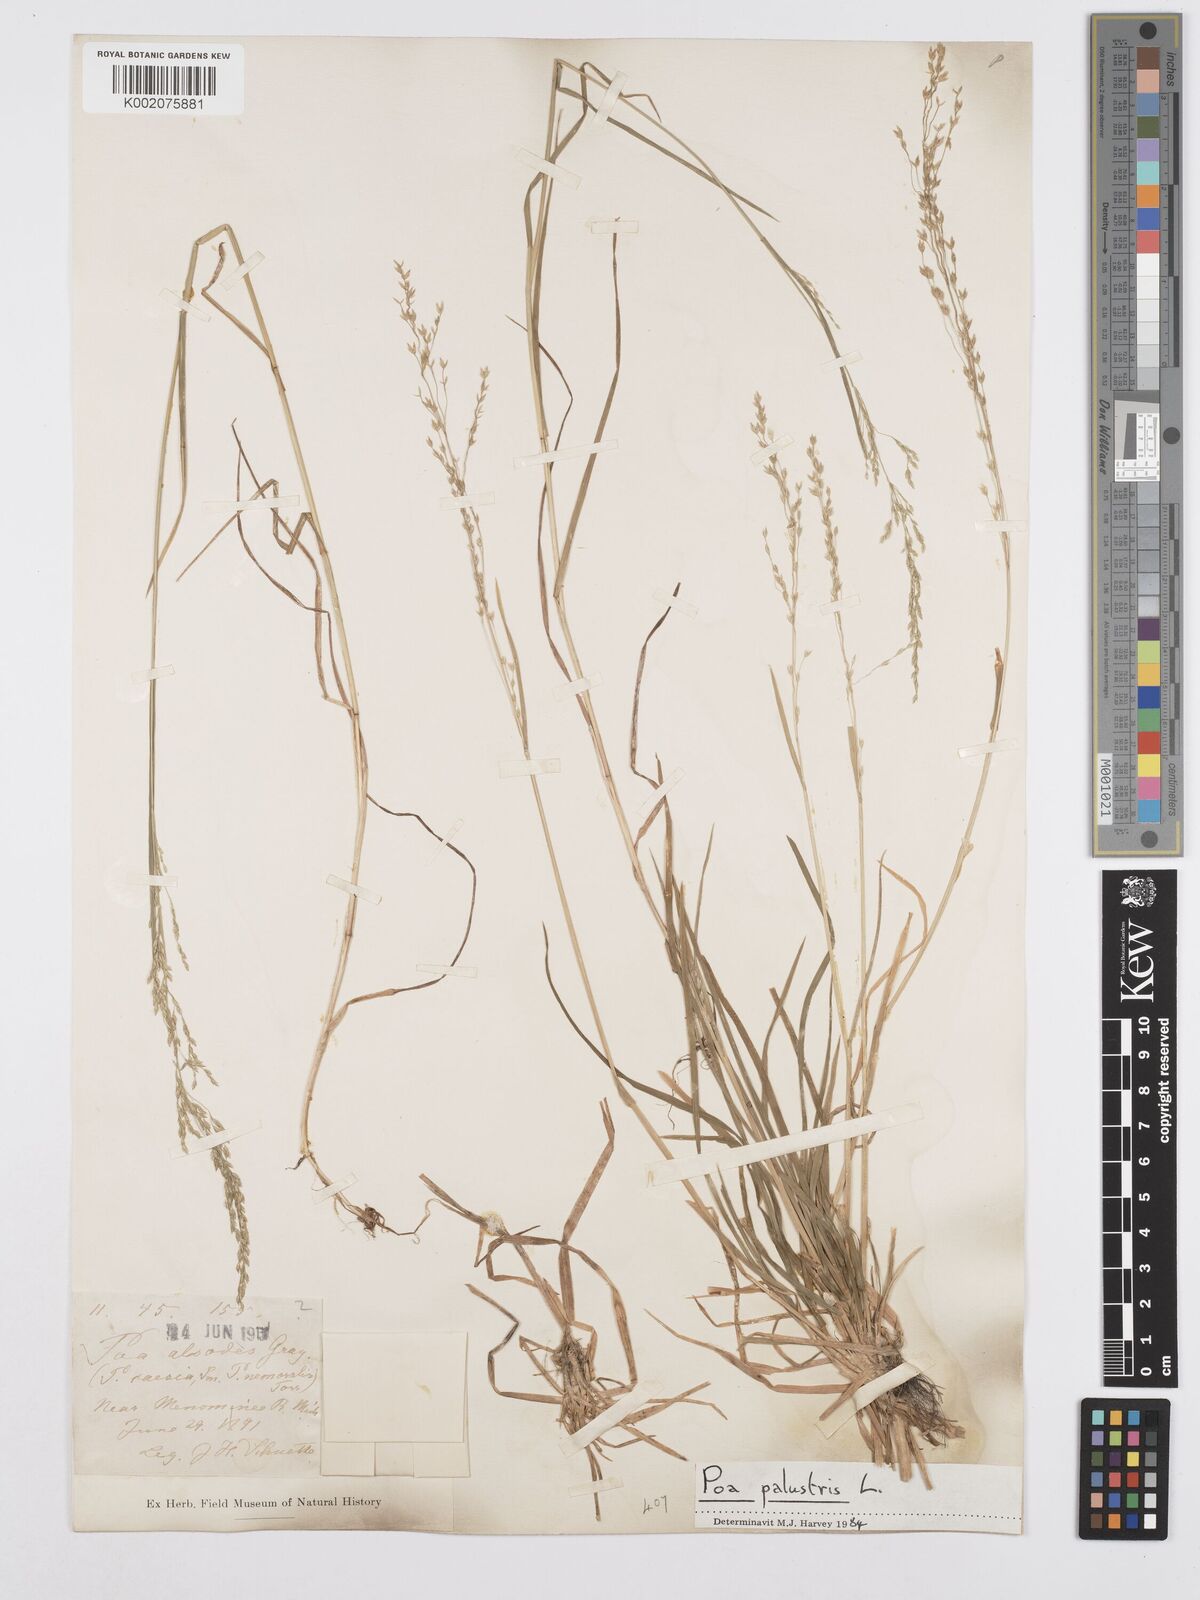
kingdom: Plantae
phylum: Tracheophyta
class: Liliopsida
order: Poales
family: Poaceae
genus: Poa
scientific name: Poa alsodes
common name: Grove bluegrass
